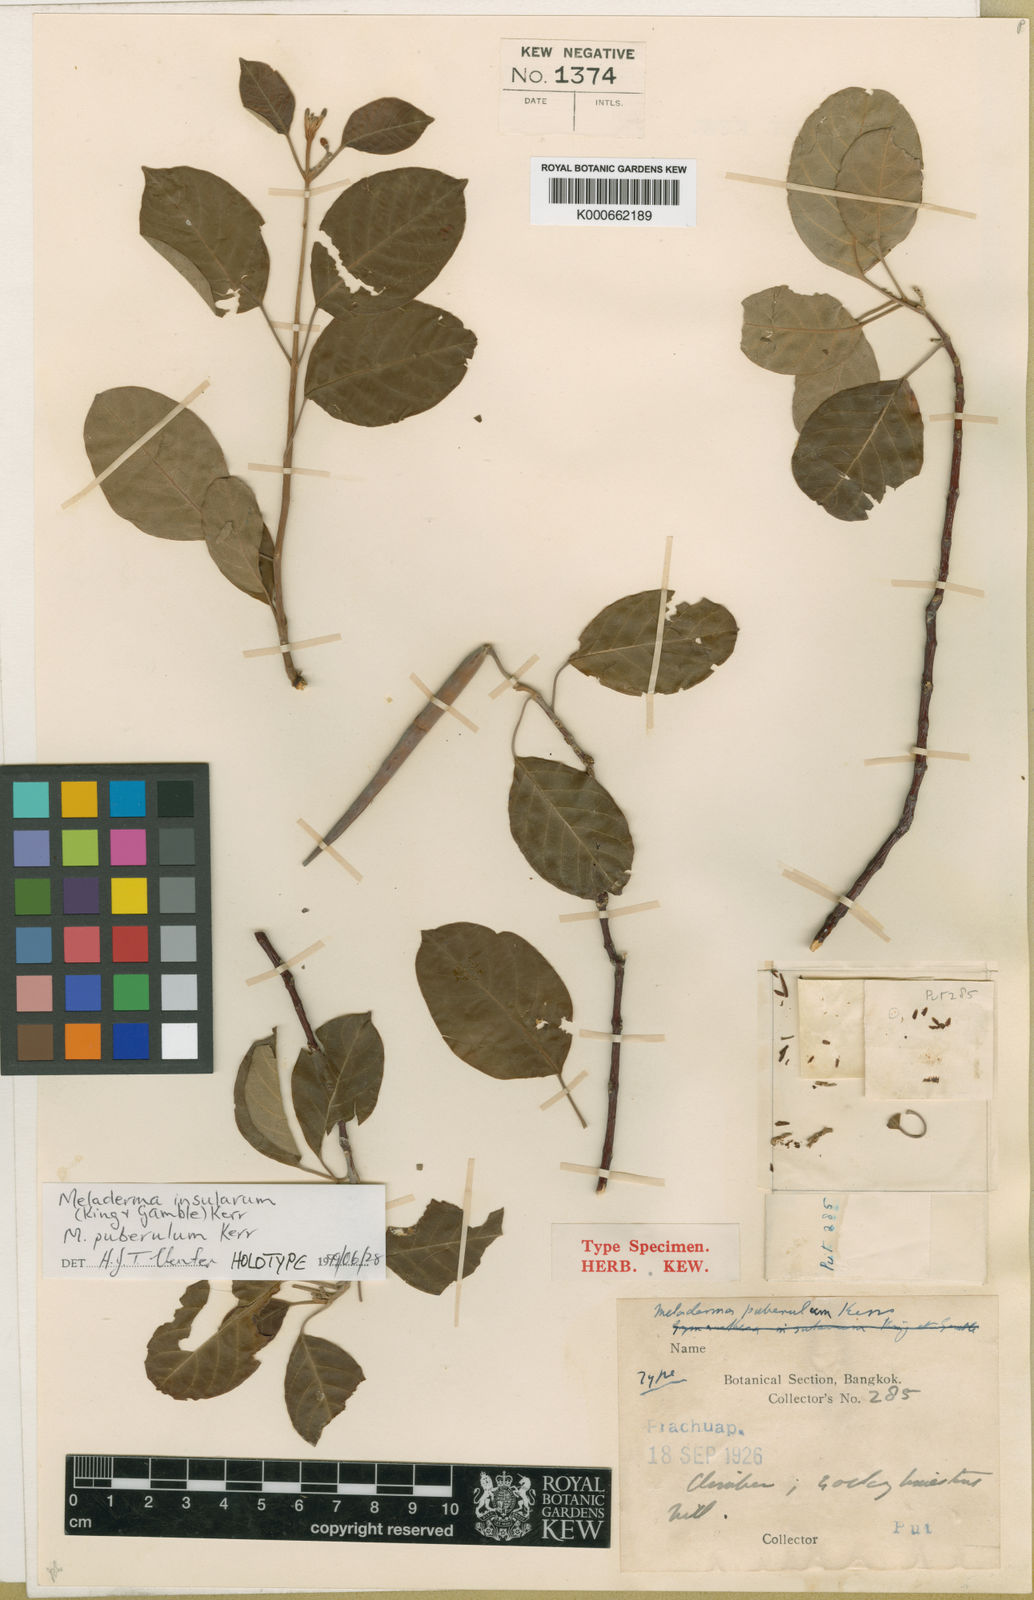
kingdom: Plantae
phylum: Tracheophyta
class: Magnoliopsida
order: Gentianales
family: Apocynaceae
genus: Finlaysonia
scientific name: Finlaysonia insularum
